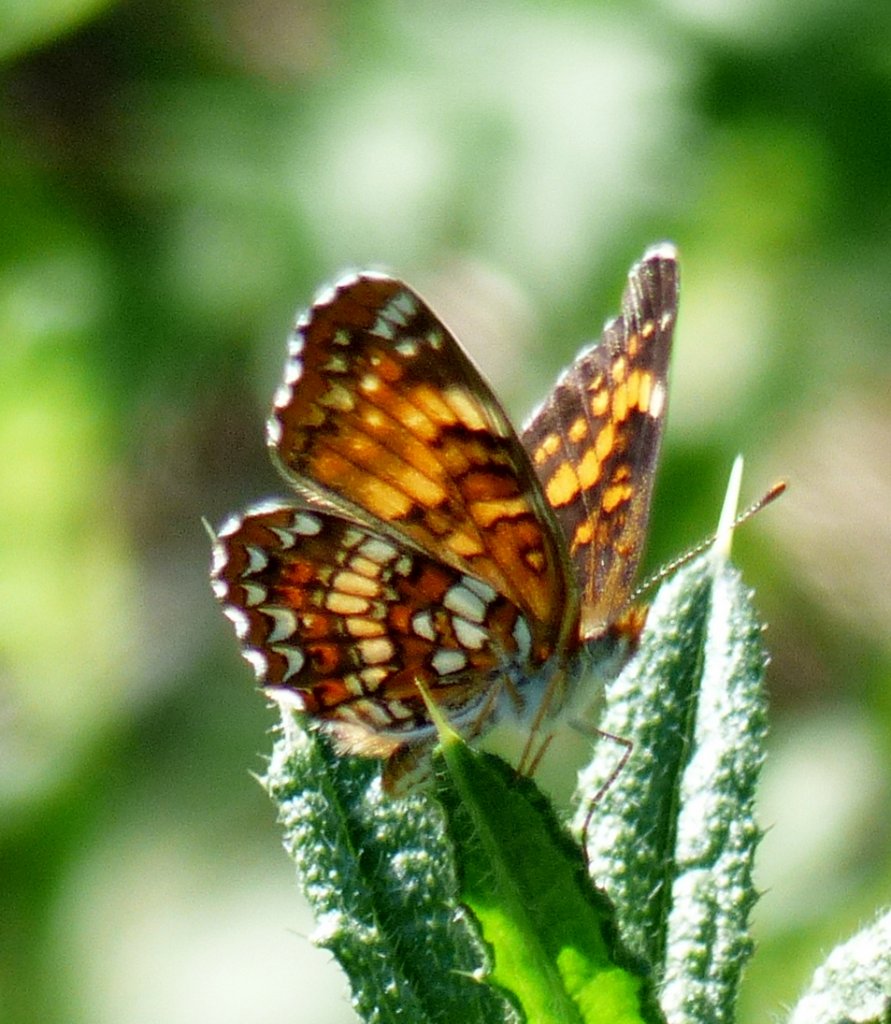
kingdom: Animalia
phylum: Arthropoda
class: Insecta
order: Lepidoptera
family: Nymphalidae
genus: Chlosyne
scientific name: Chlosyne harrisii
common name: Harris's Checkerspot
